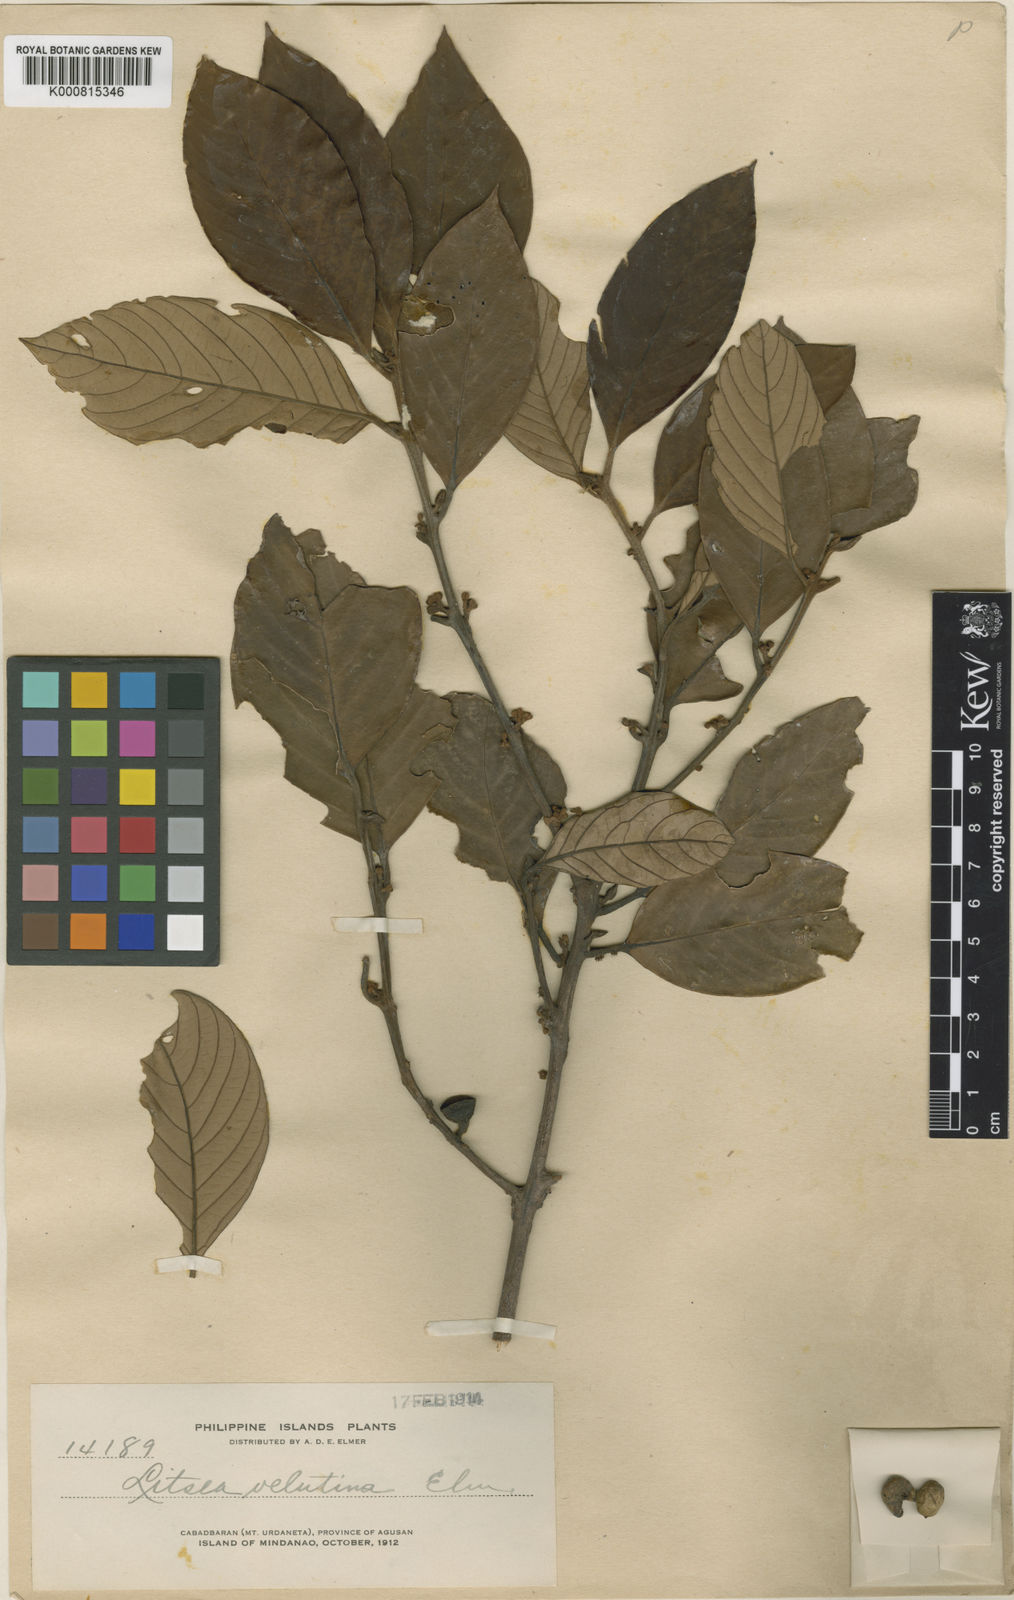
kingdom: Plantae
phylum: Tracheophyta
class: Magnoliopsida
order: Laurales
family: Lauraceae
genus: Litsea
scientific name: Litsea velutina
